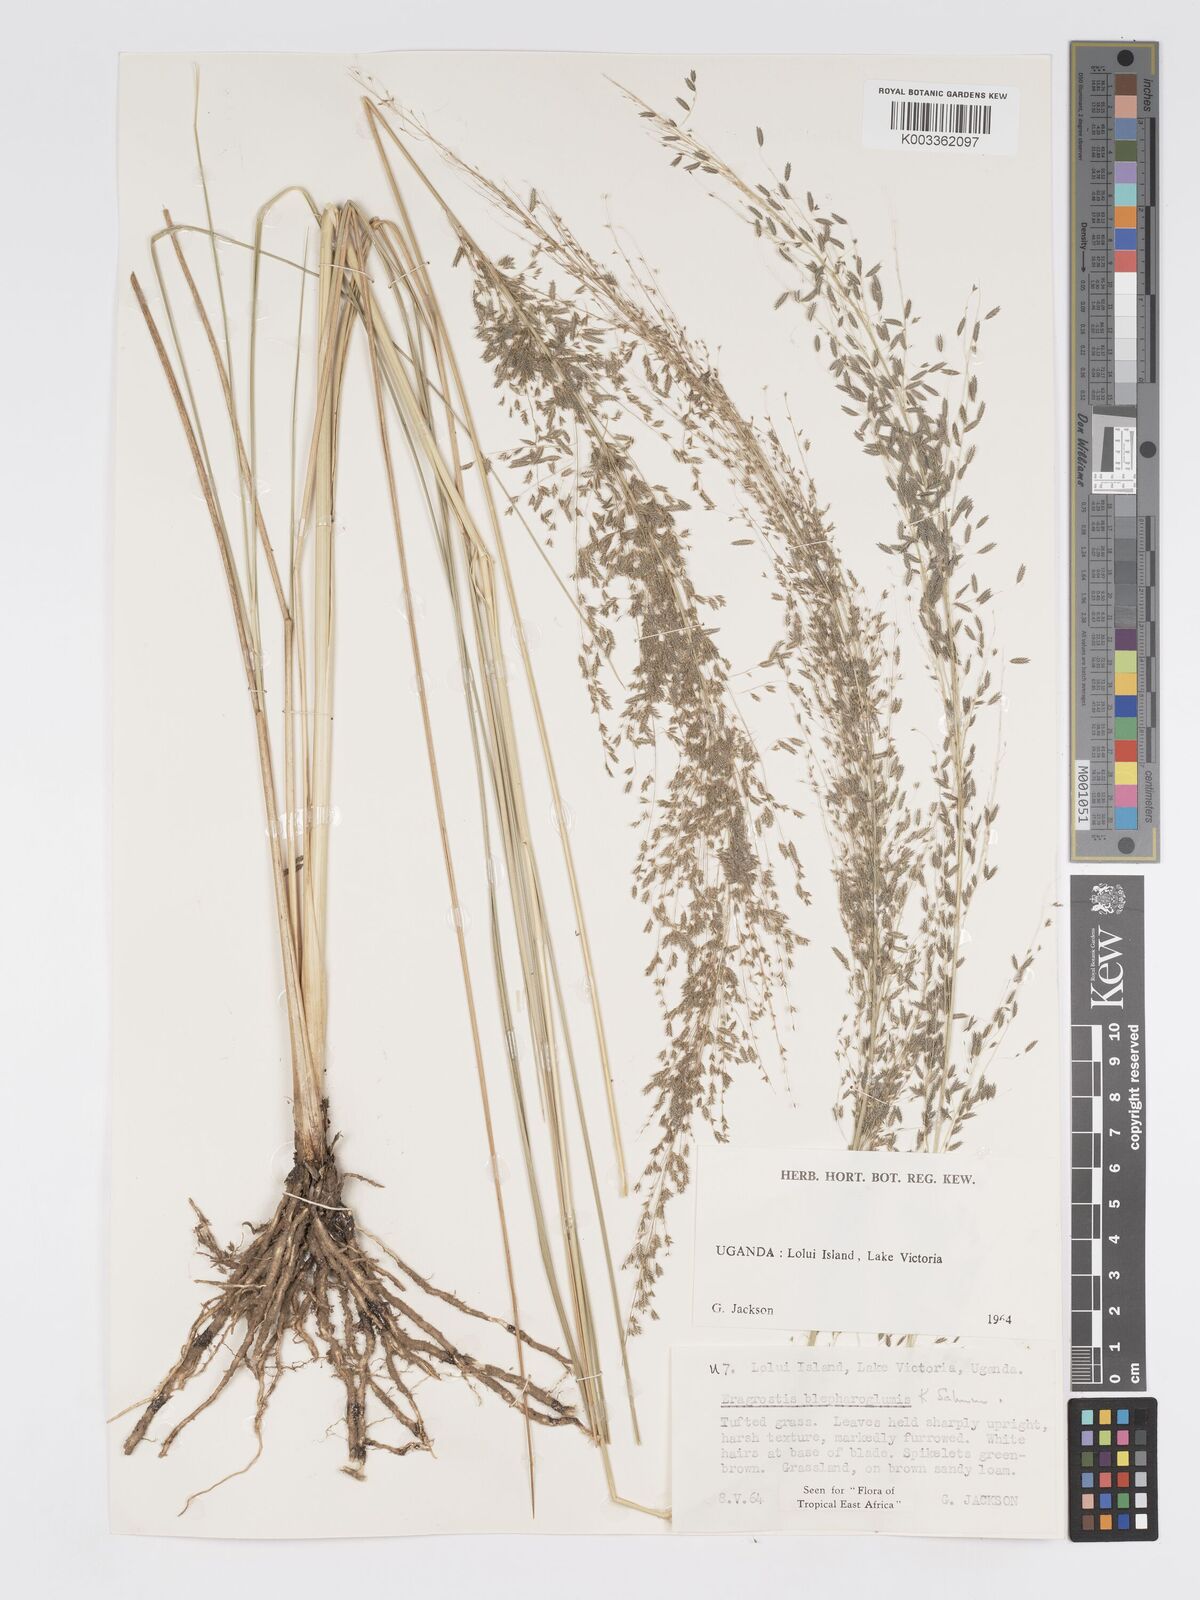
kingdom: Plantae
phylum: Tracheophyta
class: Liliopsida
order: Poales
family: Poaceae
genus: Eragrostis
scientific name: Eragrostis olivacea
